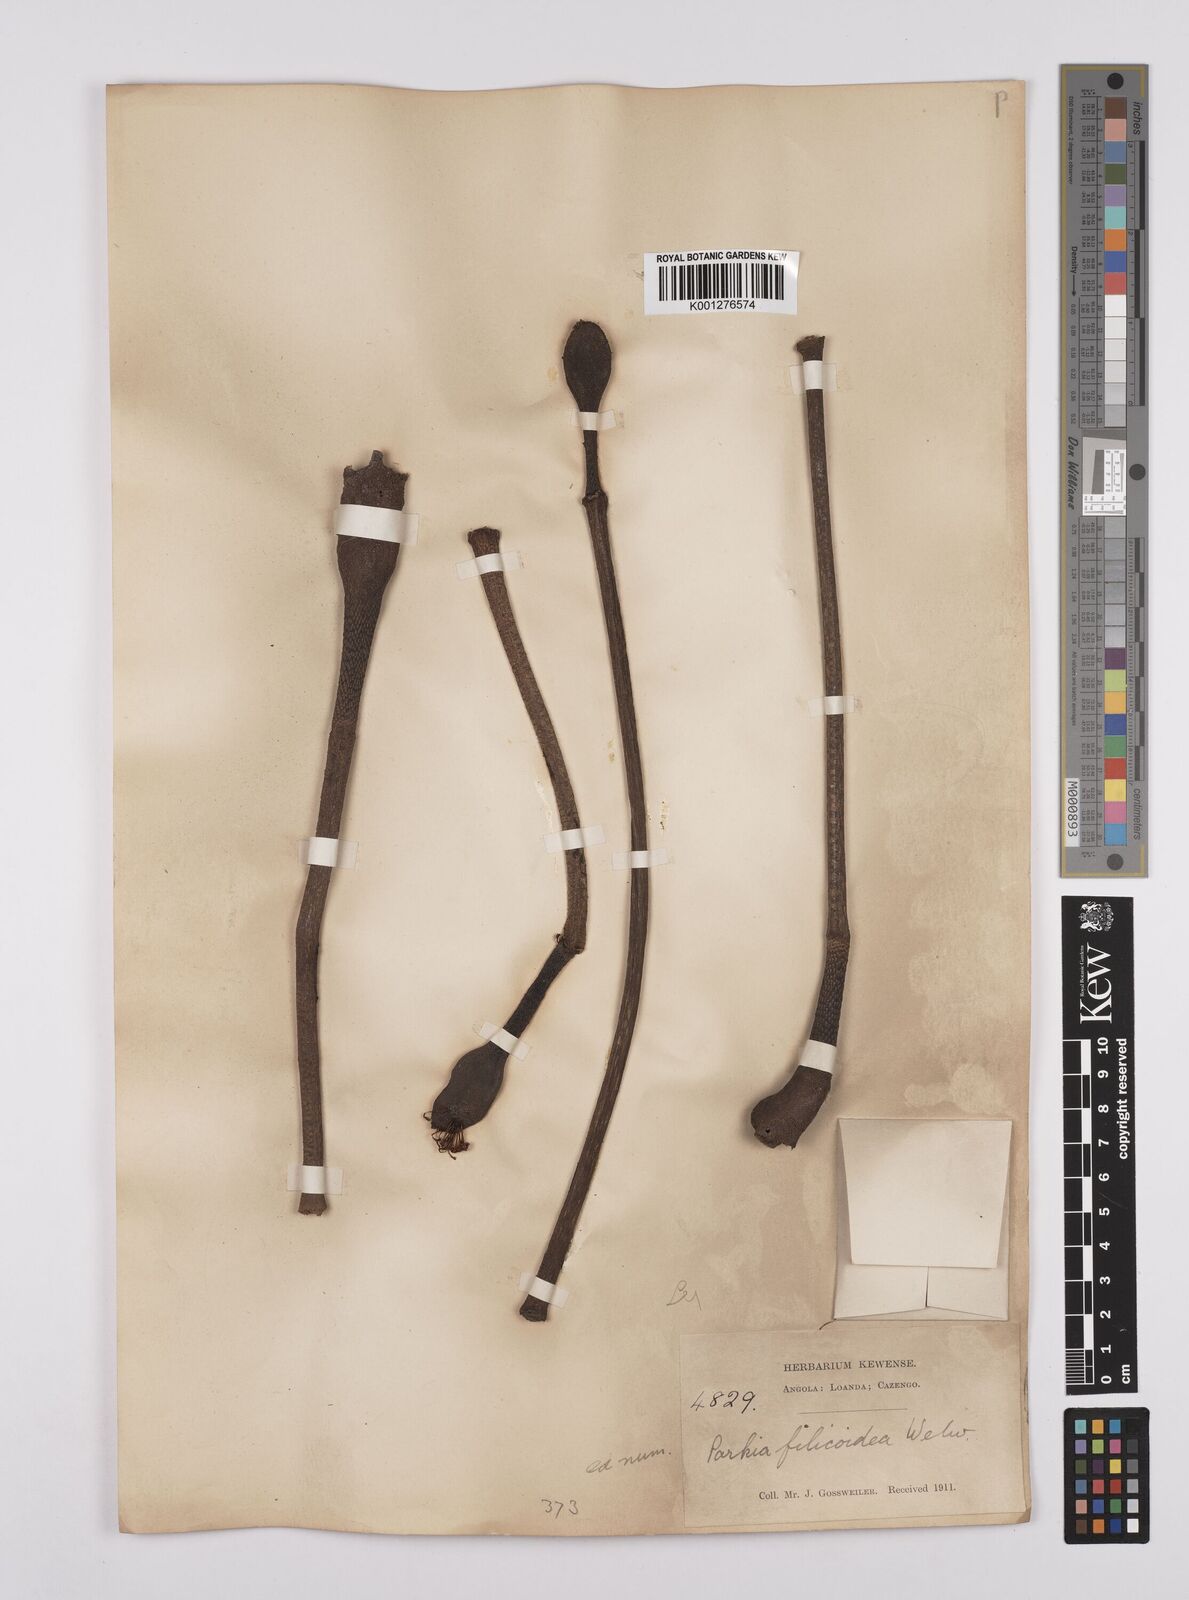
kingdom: Plantae
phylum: Tracheophyta
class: Magnoliopsida
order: Fabales
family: Fabaceae
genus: Parkia
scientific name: Parkia filicoidea
